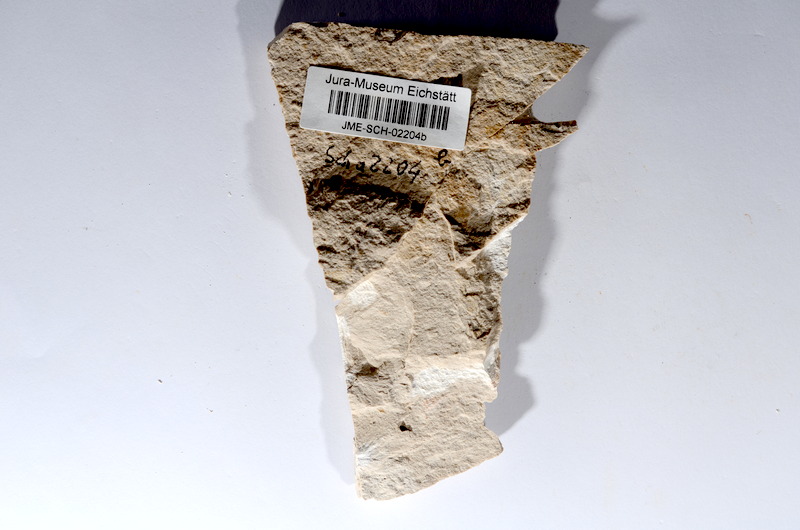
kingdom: Animalia
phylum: Chordata
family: Ascalaboidae
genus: Tharsis
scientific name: Tharsis dubius
